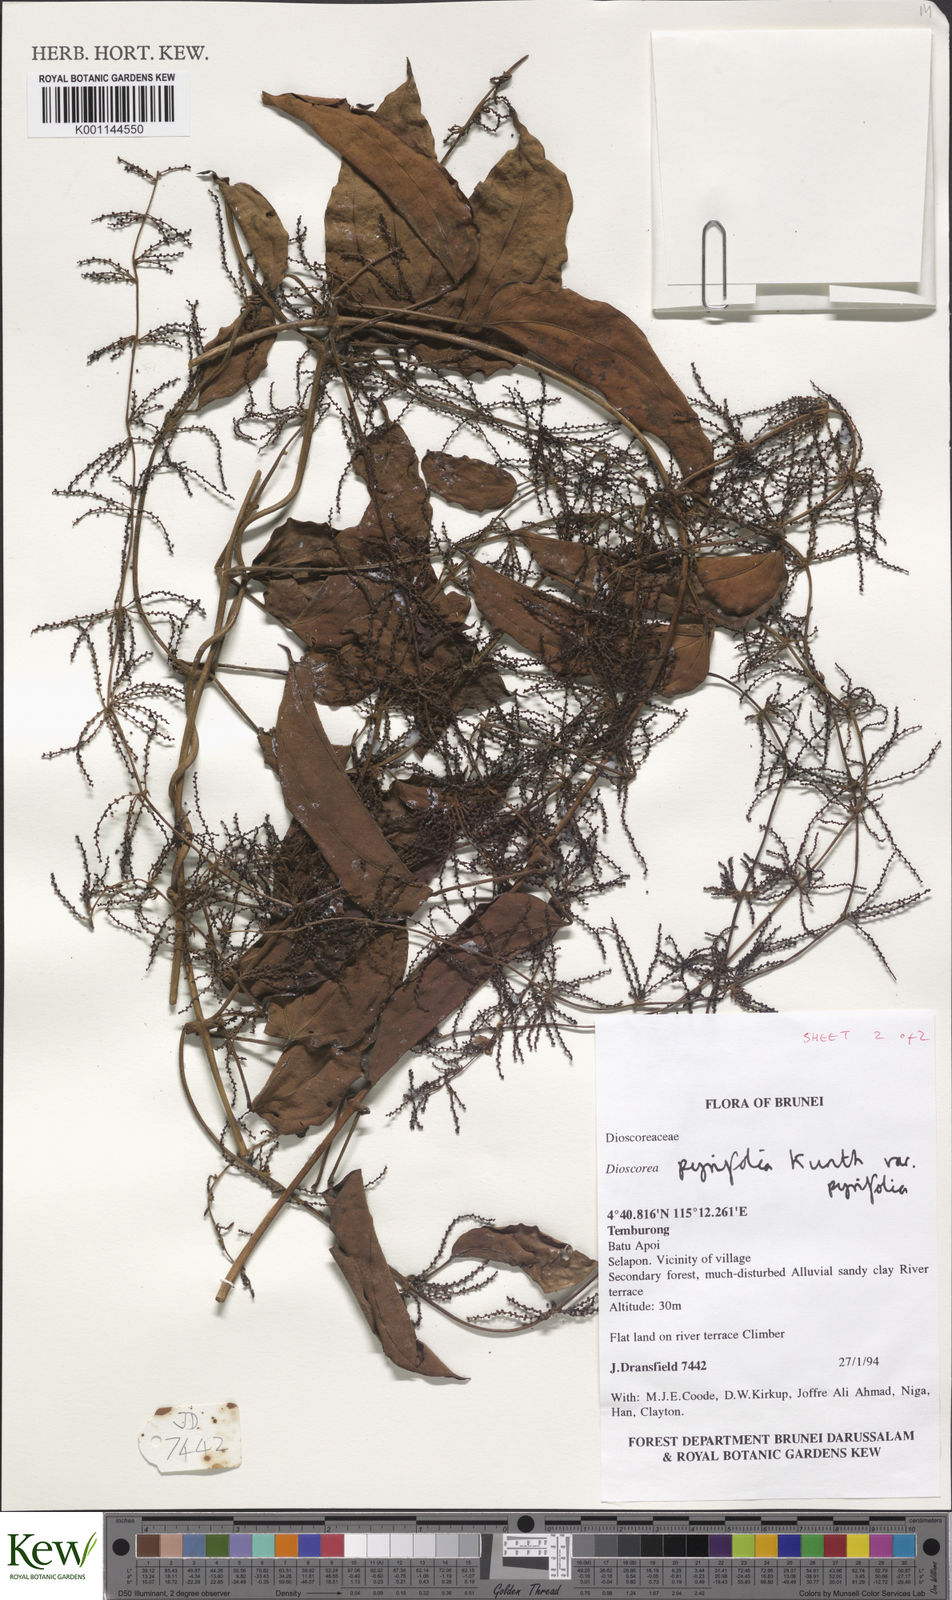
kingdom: Plantae
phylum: Tracheophyta
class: Liliopsida
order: Dioscoreales
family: Dioscoreaceae
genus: Dioscorea
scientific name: Dioscorea pyrifolia
